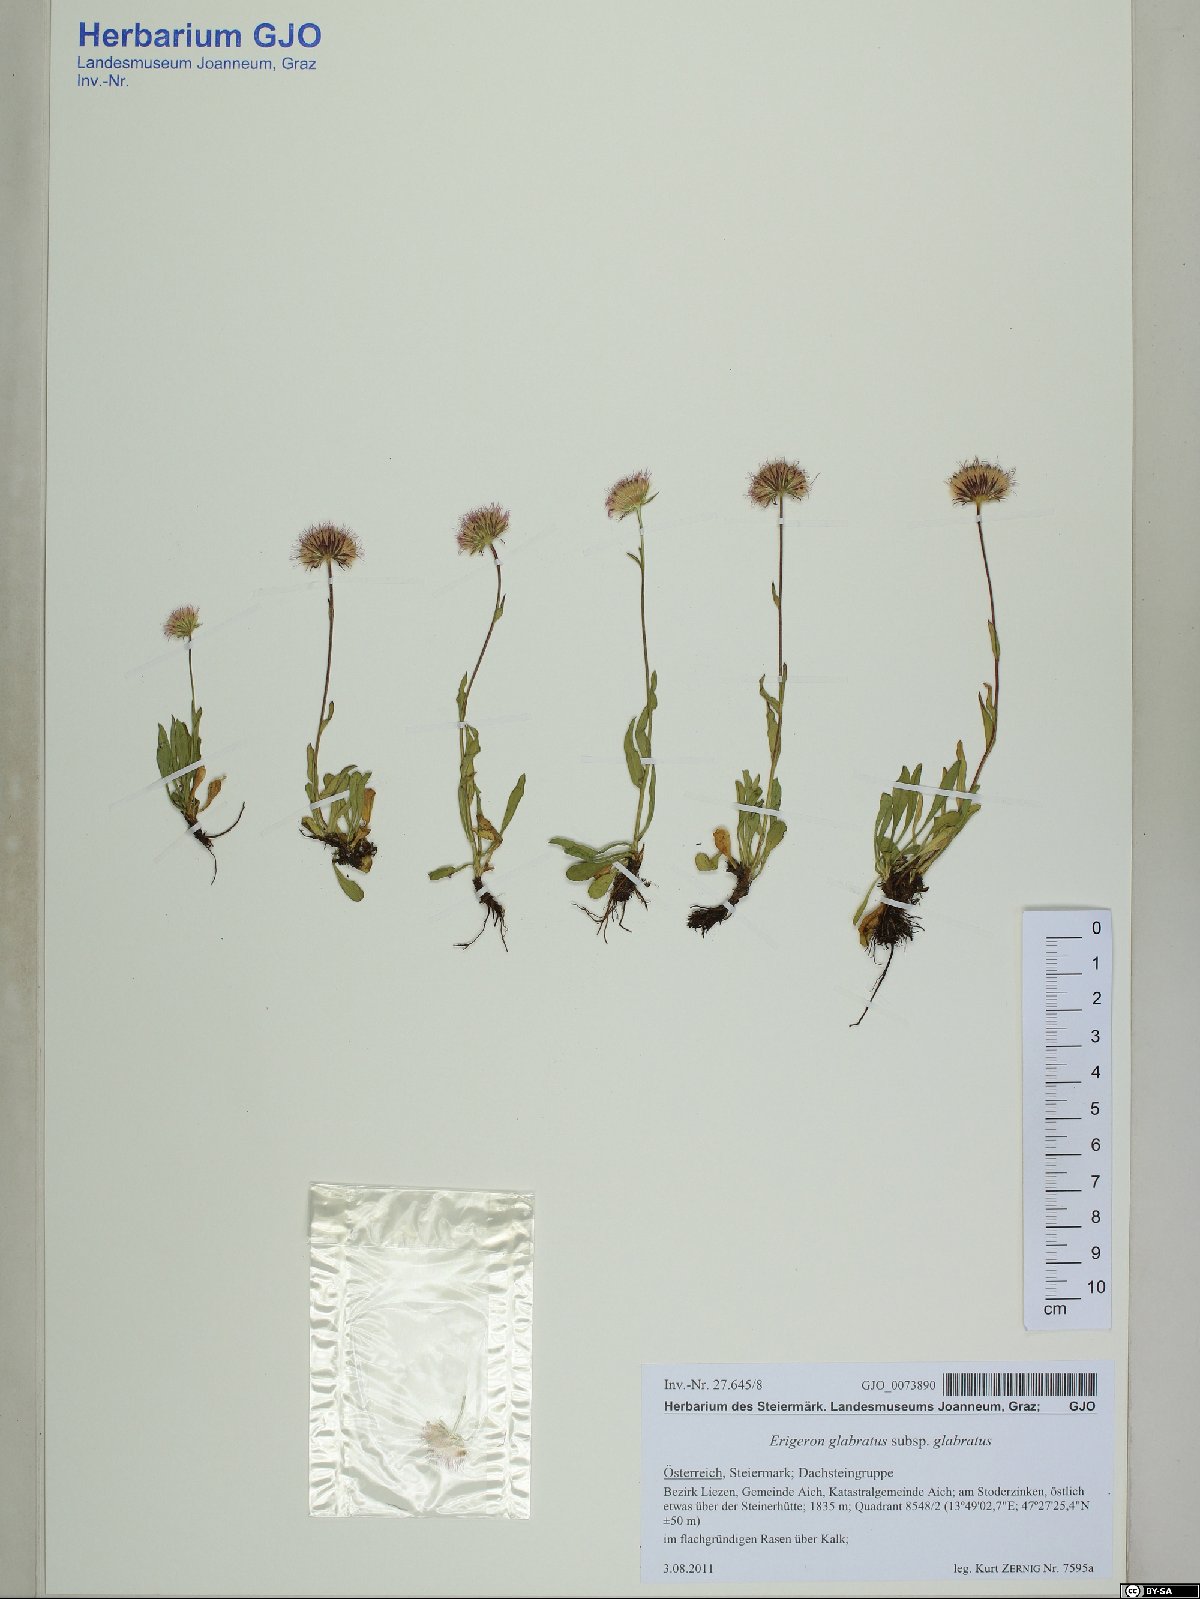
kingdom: Plantae
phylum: Tracheophyta
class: Magnoliopsida
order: Asterales
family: Asteraceae
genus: Erigeron
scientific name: Erigeron glabratus
